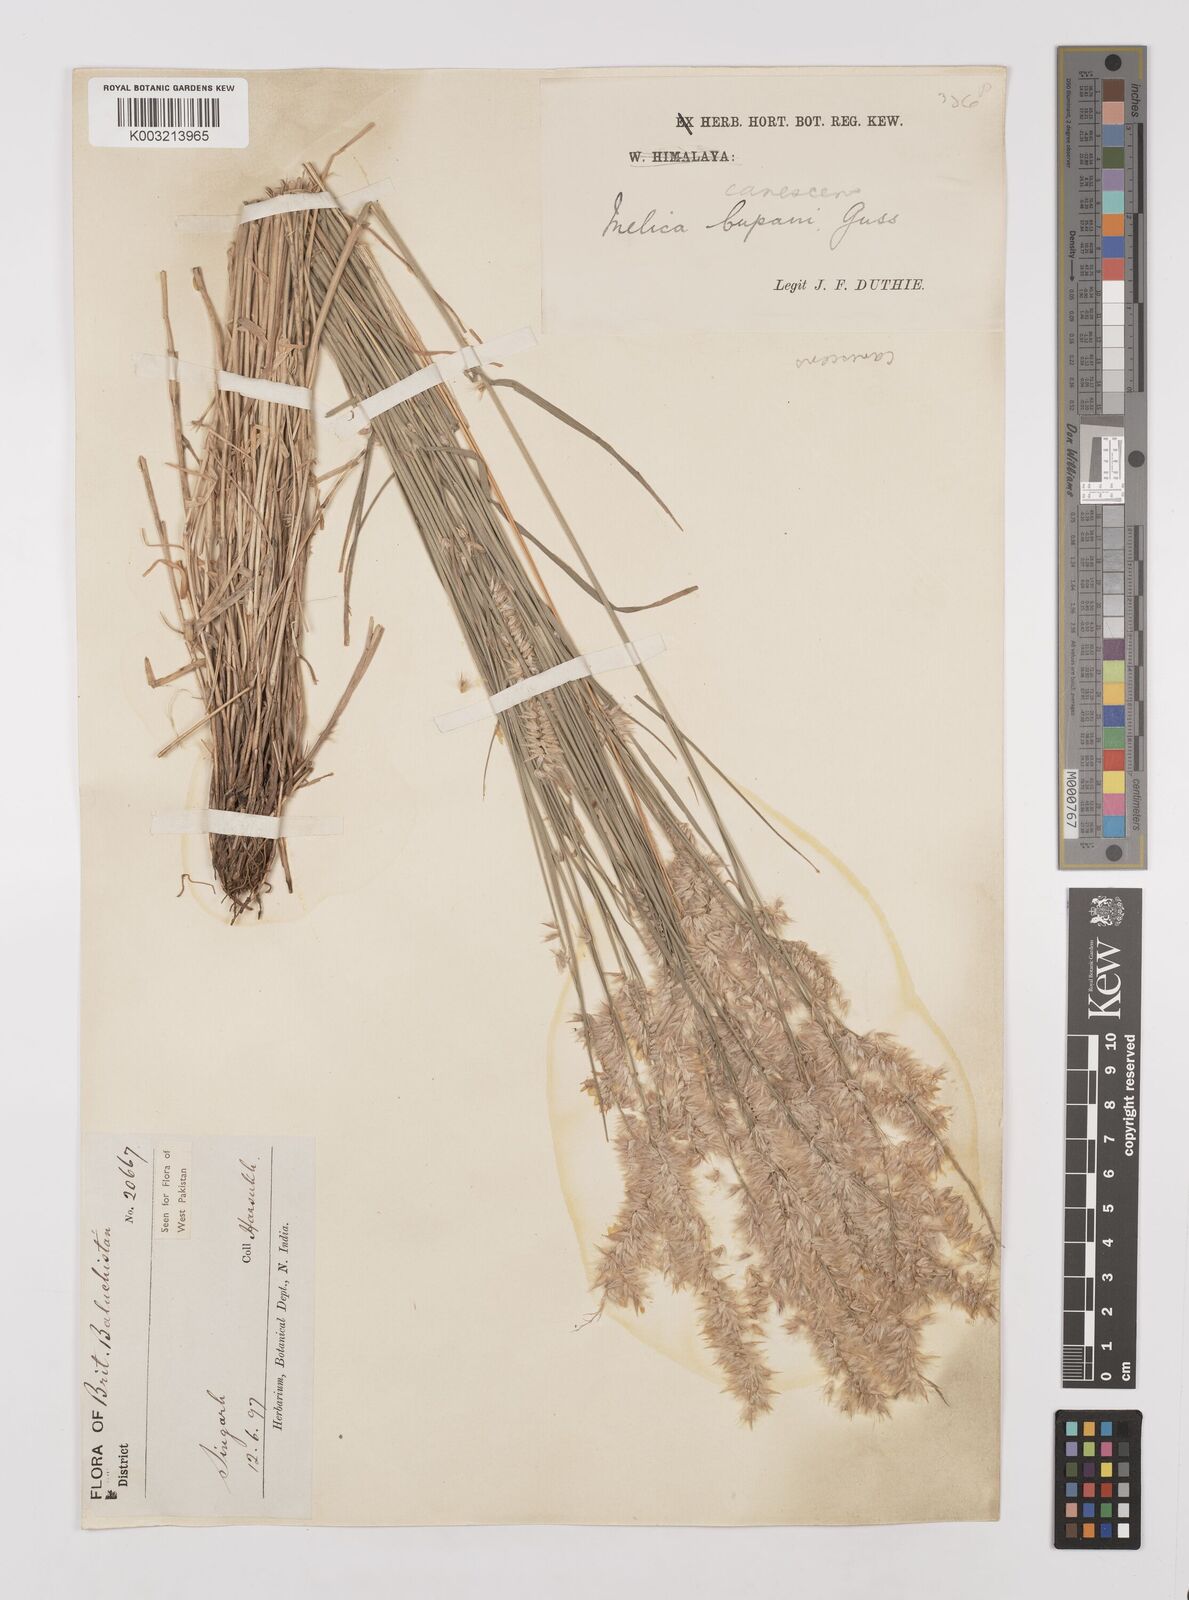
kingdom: Plantae
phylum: Tracheophyta
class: Liliopsida
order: Poales
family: Poaceae
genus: Melica
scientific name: Melica persica
